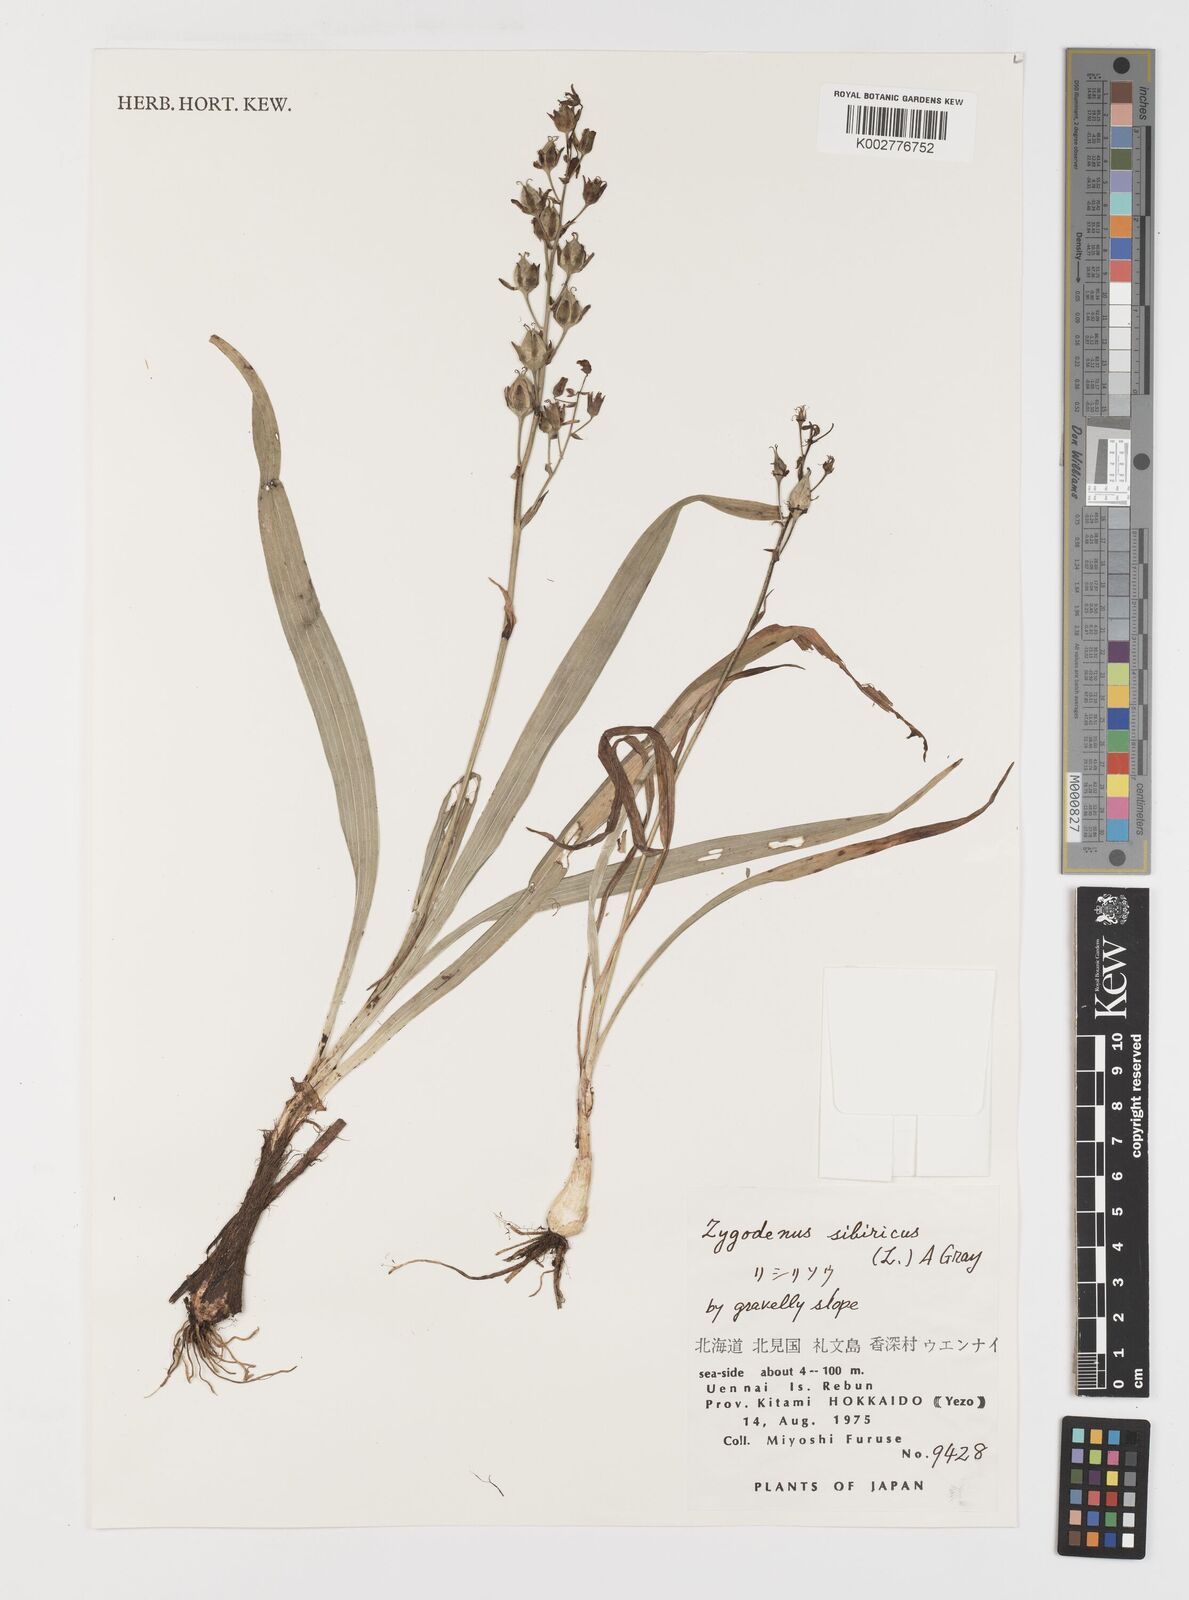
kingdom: Plantae
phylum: Tracheophyta
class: Liliopsida
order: Liliales
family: Melanthiaceae
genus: Anticlea
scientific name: Anticlea sibirica
